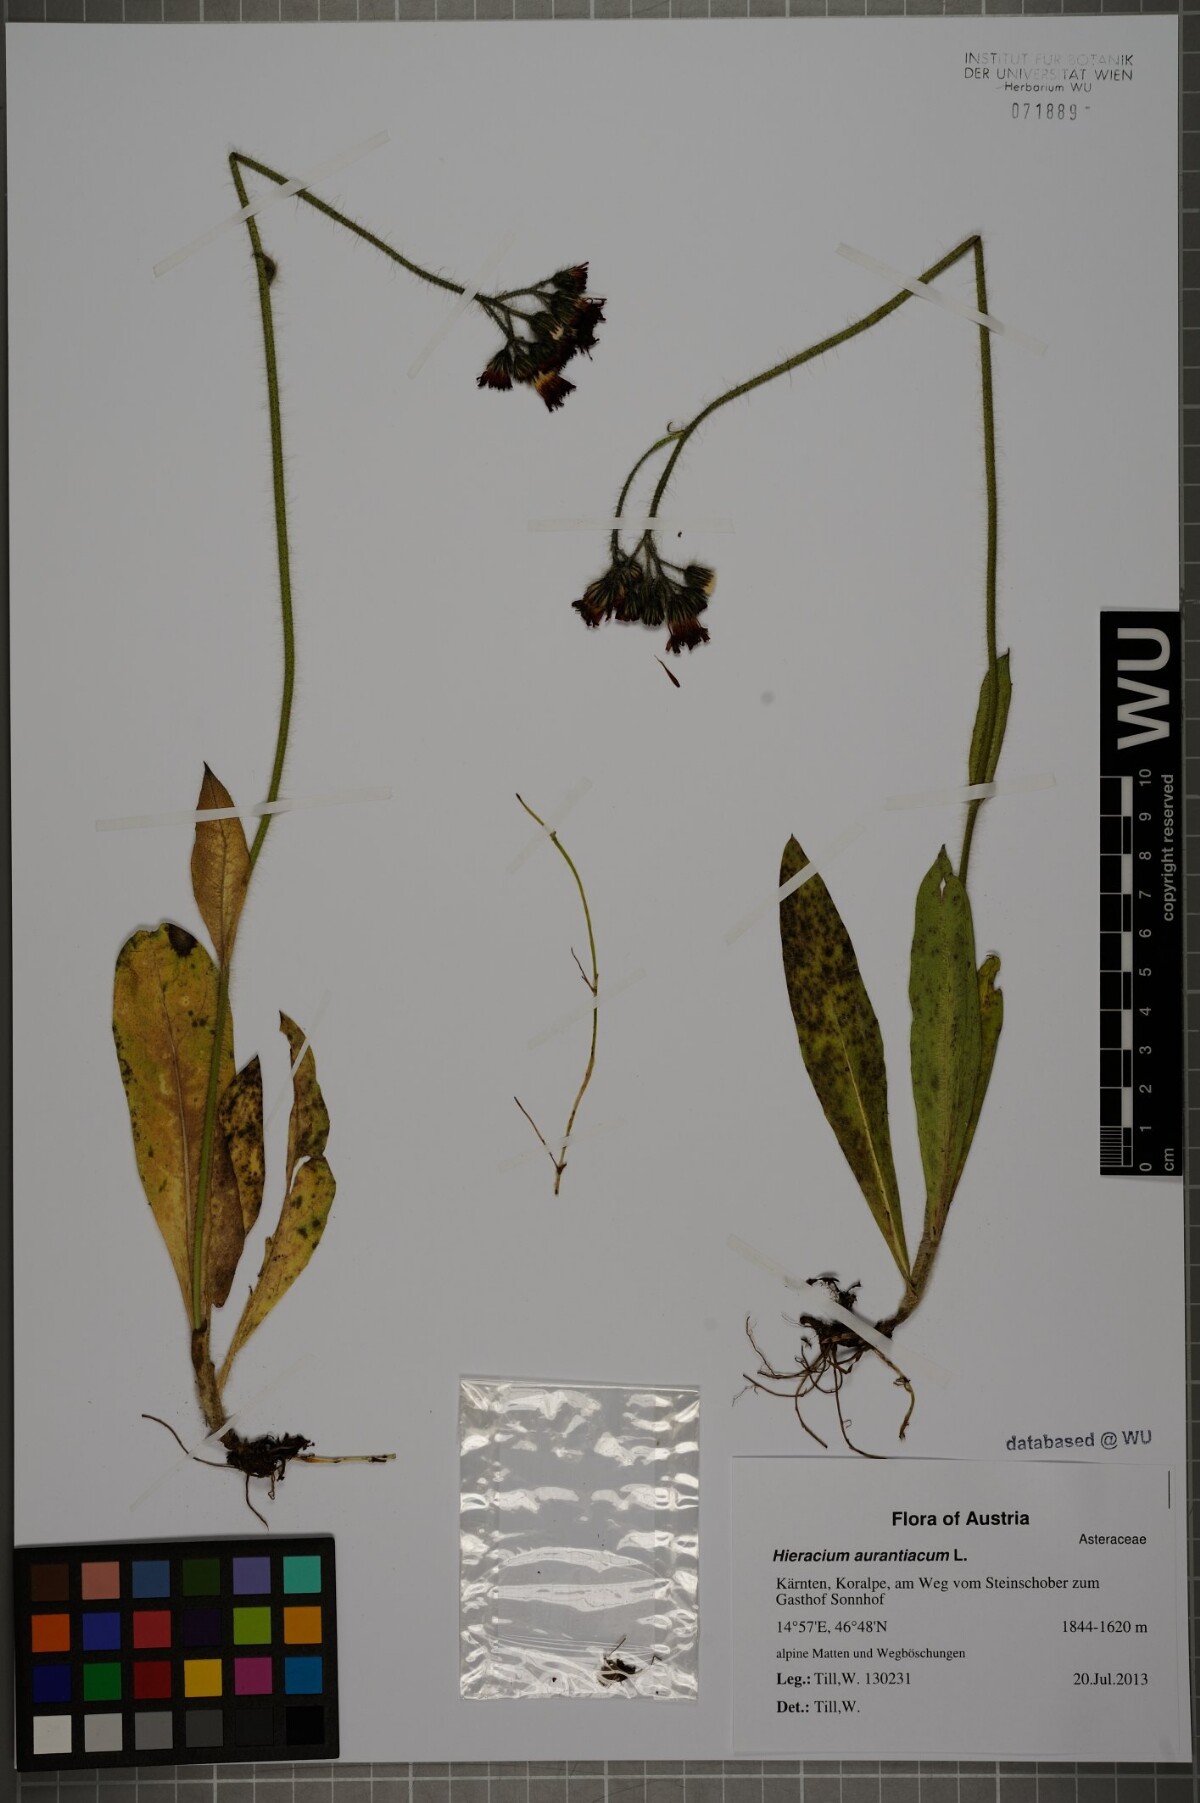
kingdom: Plantae
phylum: Tracheophyta
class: Magnoliopsida
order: Asterales
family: Asteraceae
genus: Pilosella
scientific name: Pilosella aurantiaca
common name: Fox-and-cubs
